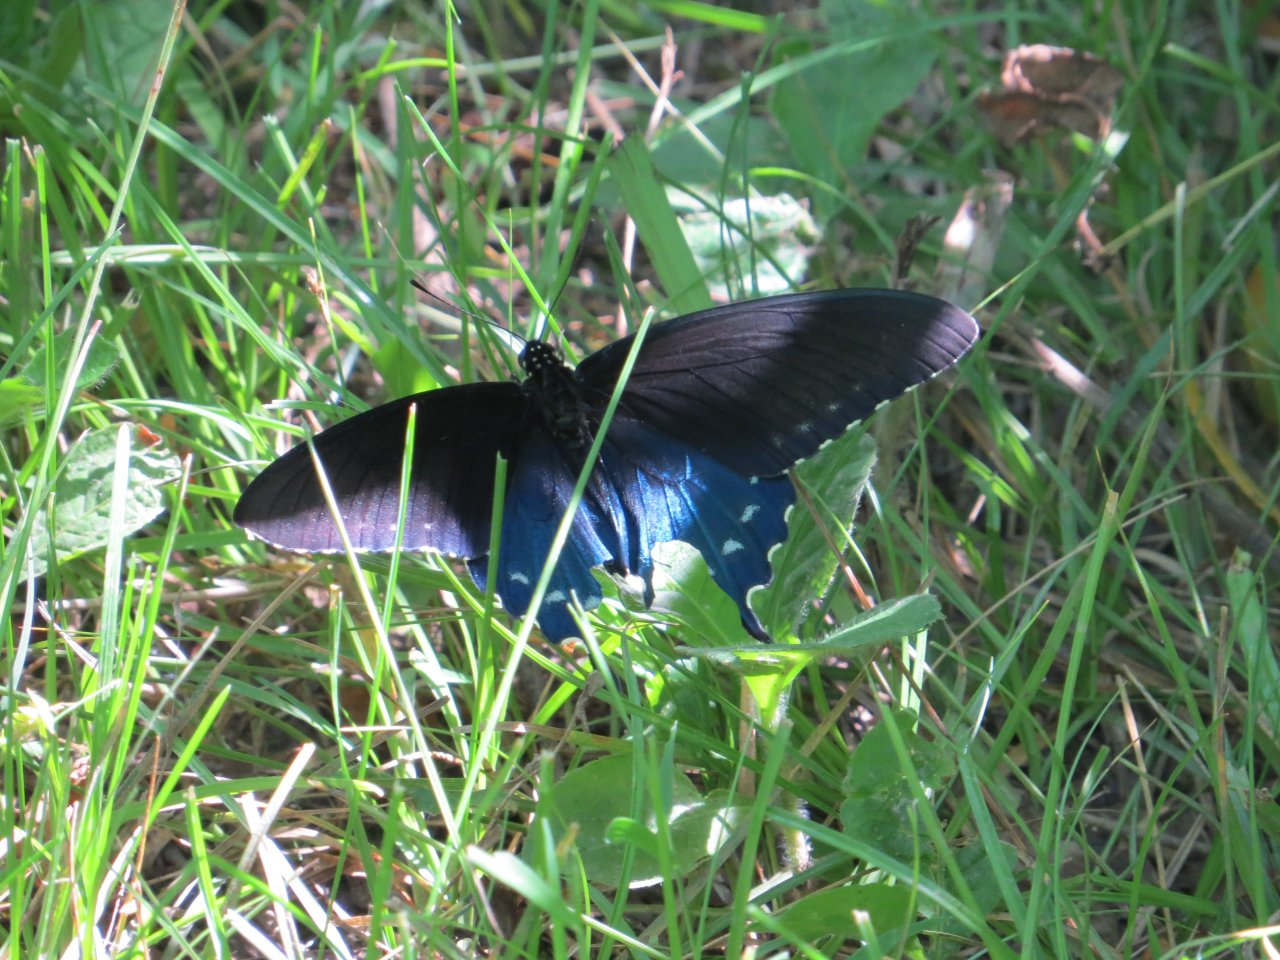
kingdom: Animalia
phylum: Arthropoda
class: Insecta
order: Lepidoptera
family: Papilionidae
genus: Battus
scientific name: Battus philenor
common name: Pipevine Swallowtail
